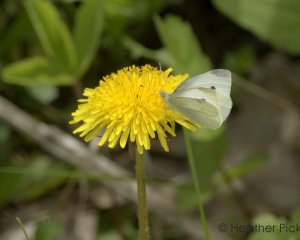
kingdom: Animalia
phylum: Arthropoda
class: Insecta
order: Lepidoptera
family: Pieridae
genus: Pieris
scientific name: Pieris rapae
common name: Cabbage White
